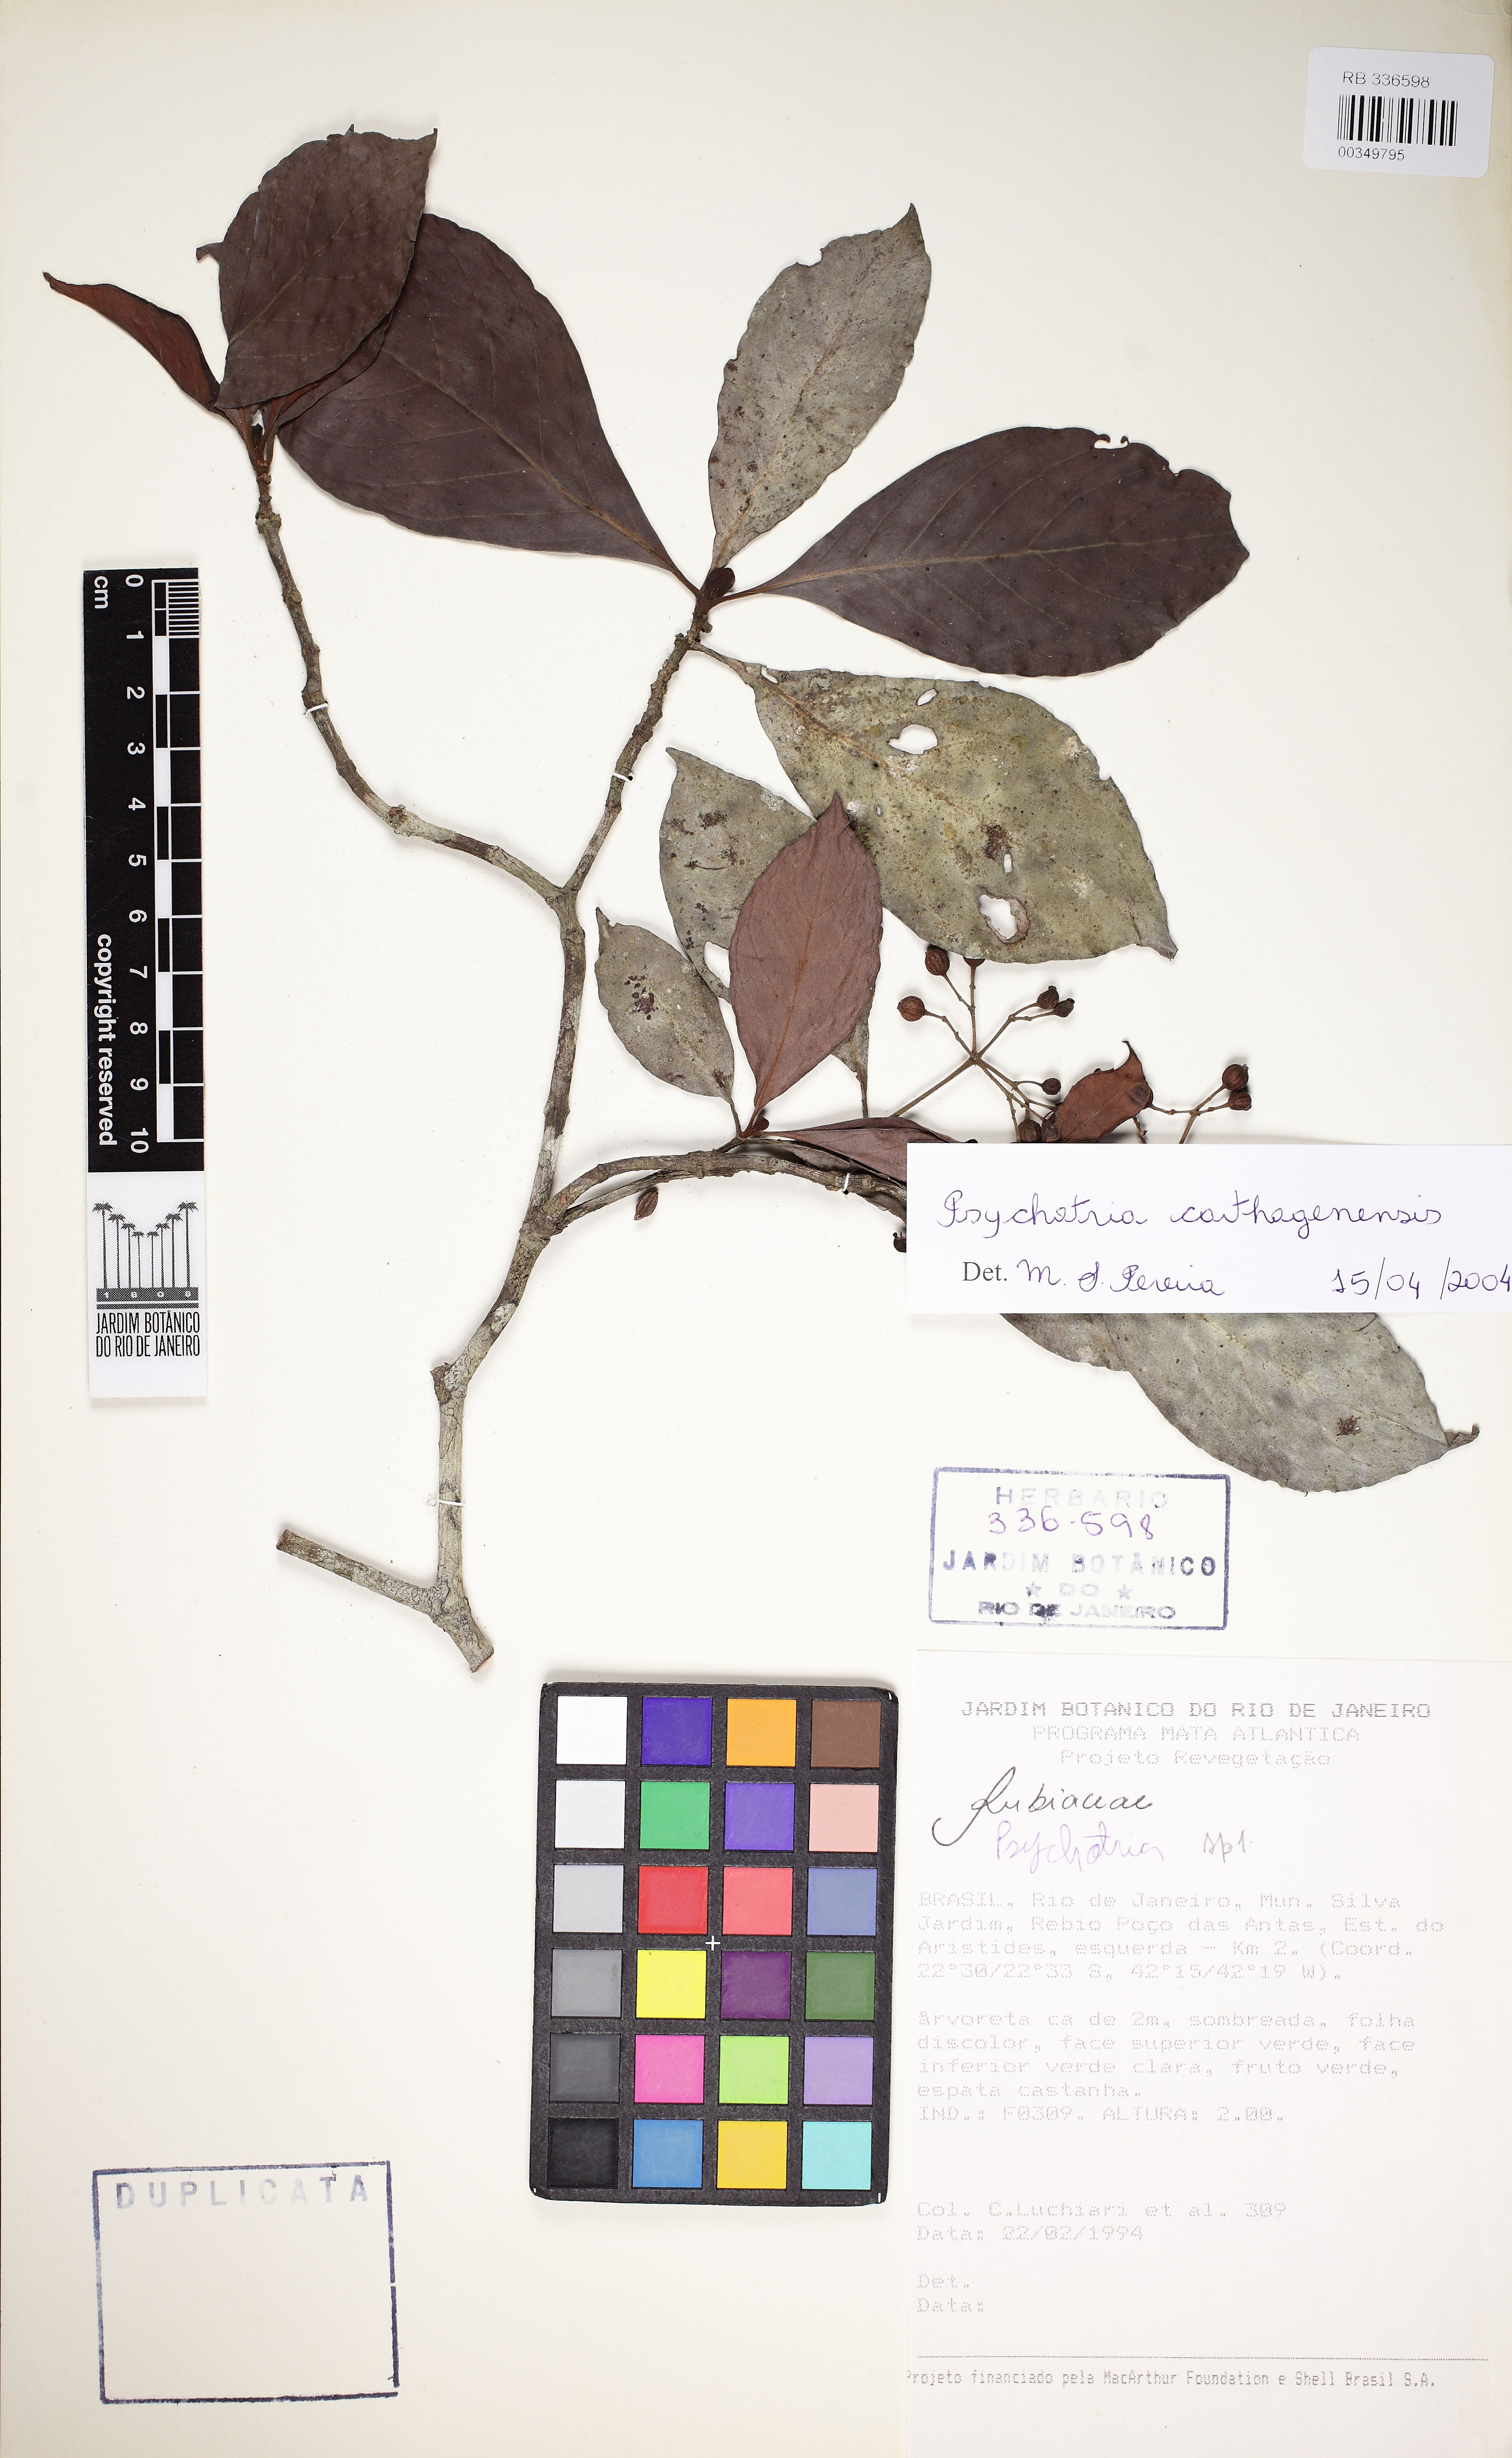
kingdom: Plantae
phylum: Tracheophyta
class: Magnoliopsida
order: Gentianales
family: Rubiaceae
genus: Psychotria
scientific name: Psychotria carthagenensis
